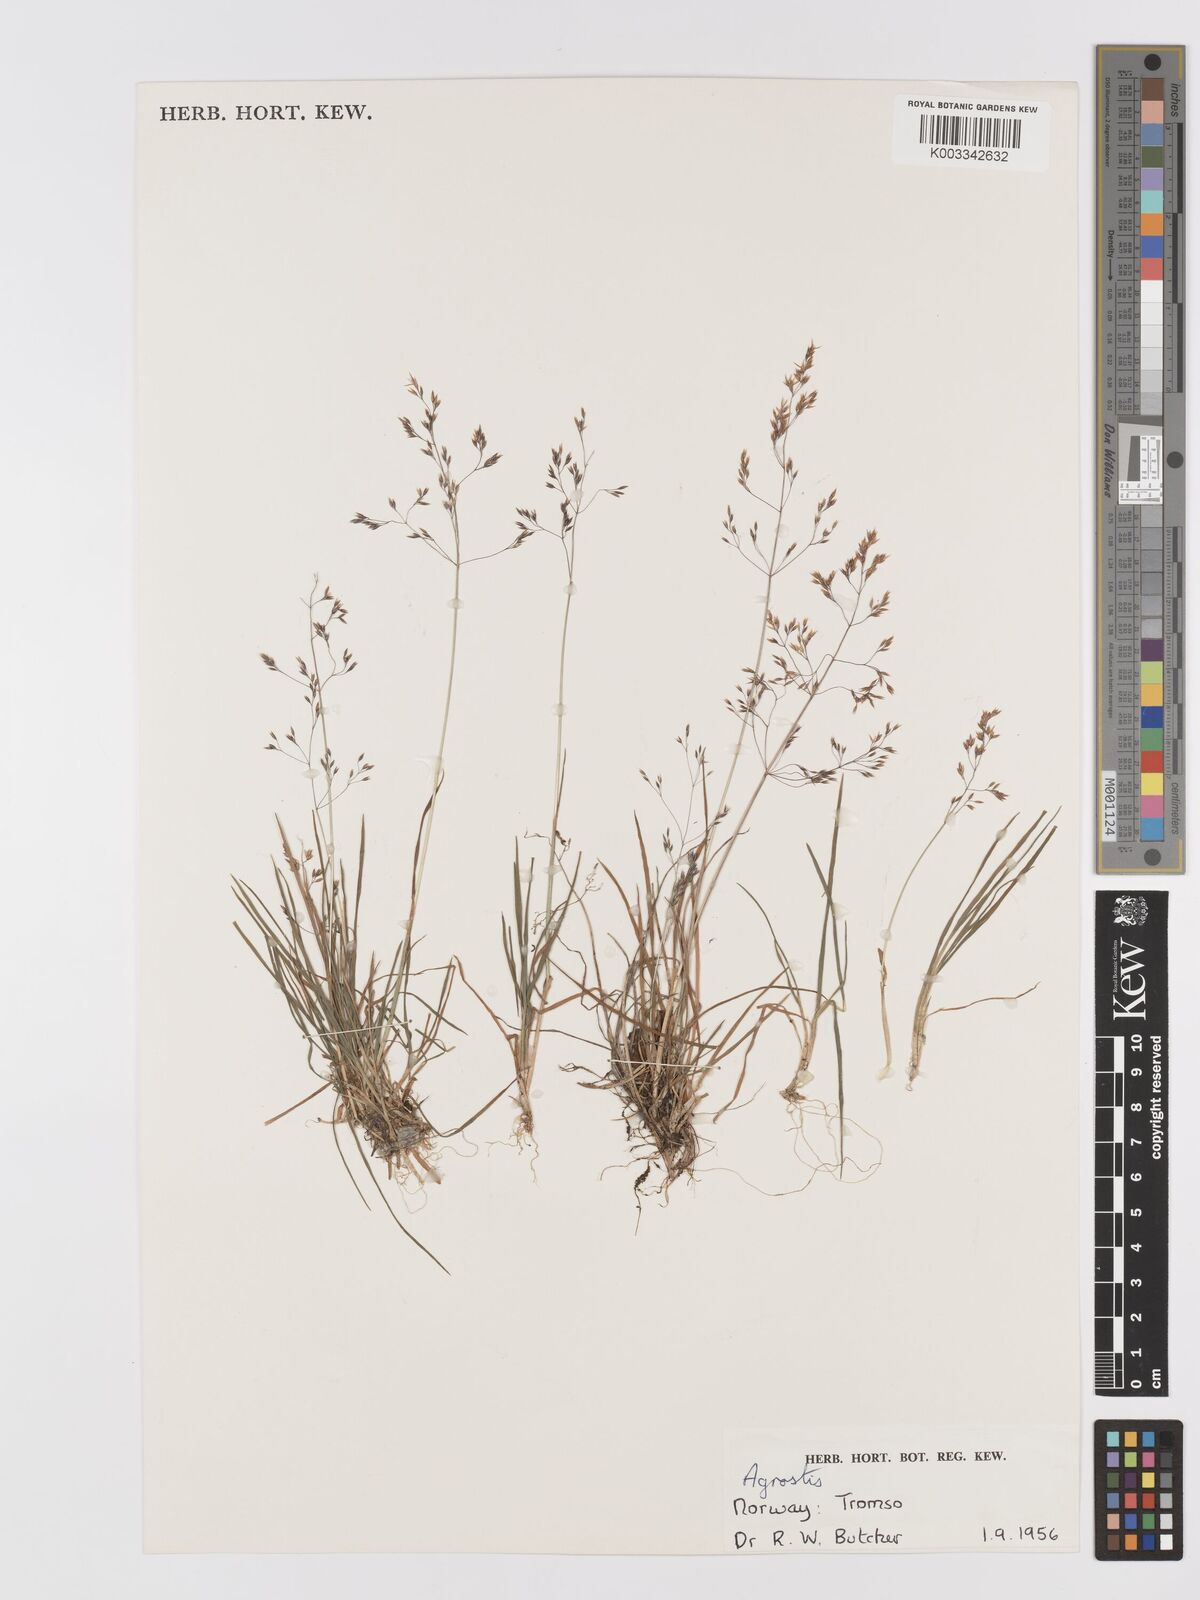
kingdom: Plantae
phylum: Tracheophyta
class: Liliopsida
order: Poales
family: Poaceae
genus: Agrostis
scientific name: Agrostis
